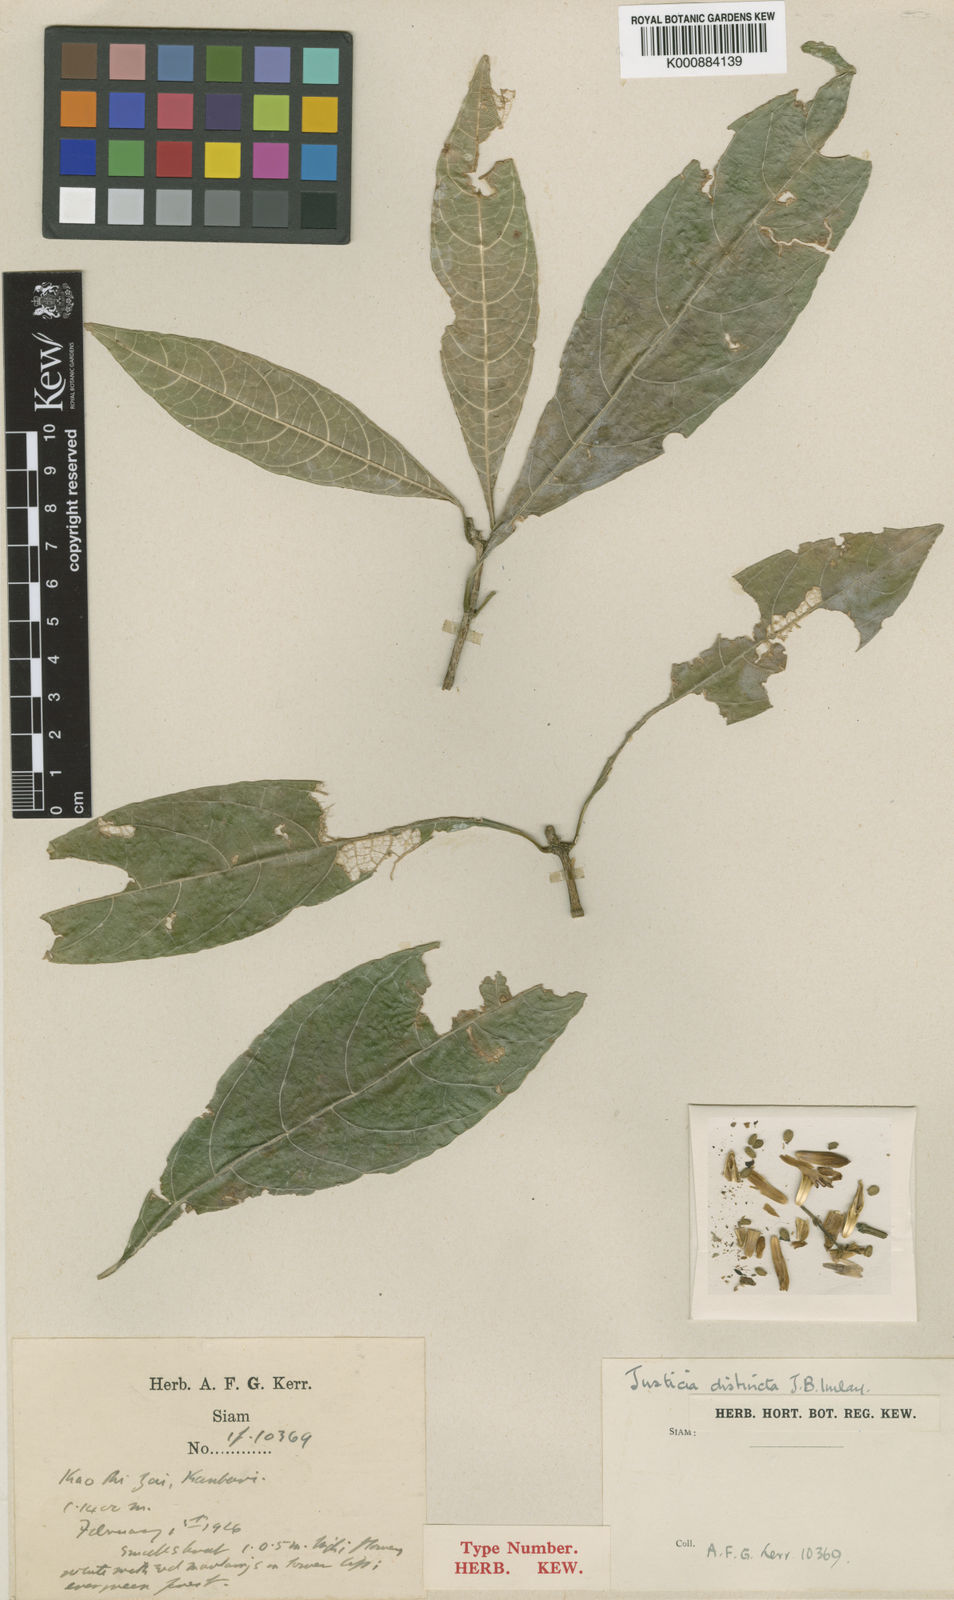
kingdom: Plantae
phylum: Tracheophyta
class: Magnoliopsida
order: Lamiales
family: Acanthaceae
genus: Justicia
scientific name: Justicia distincta
